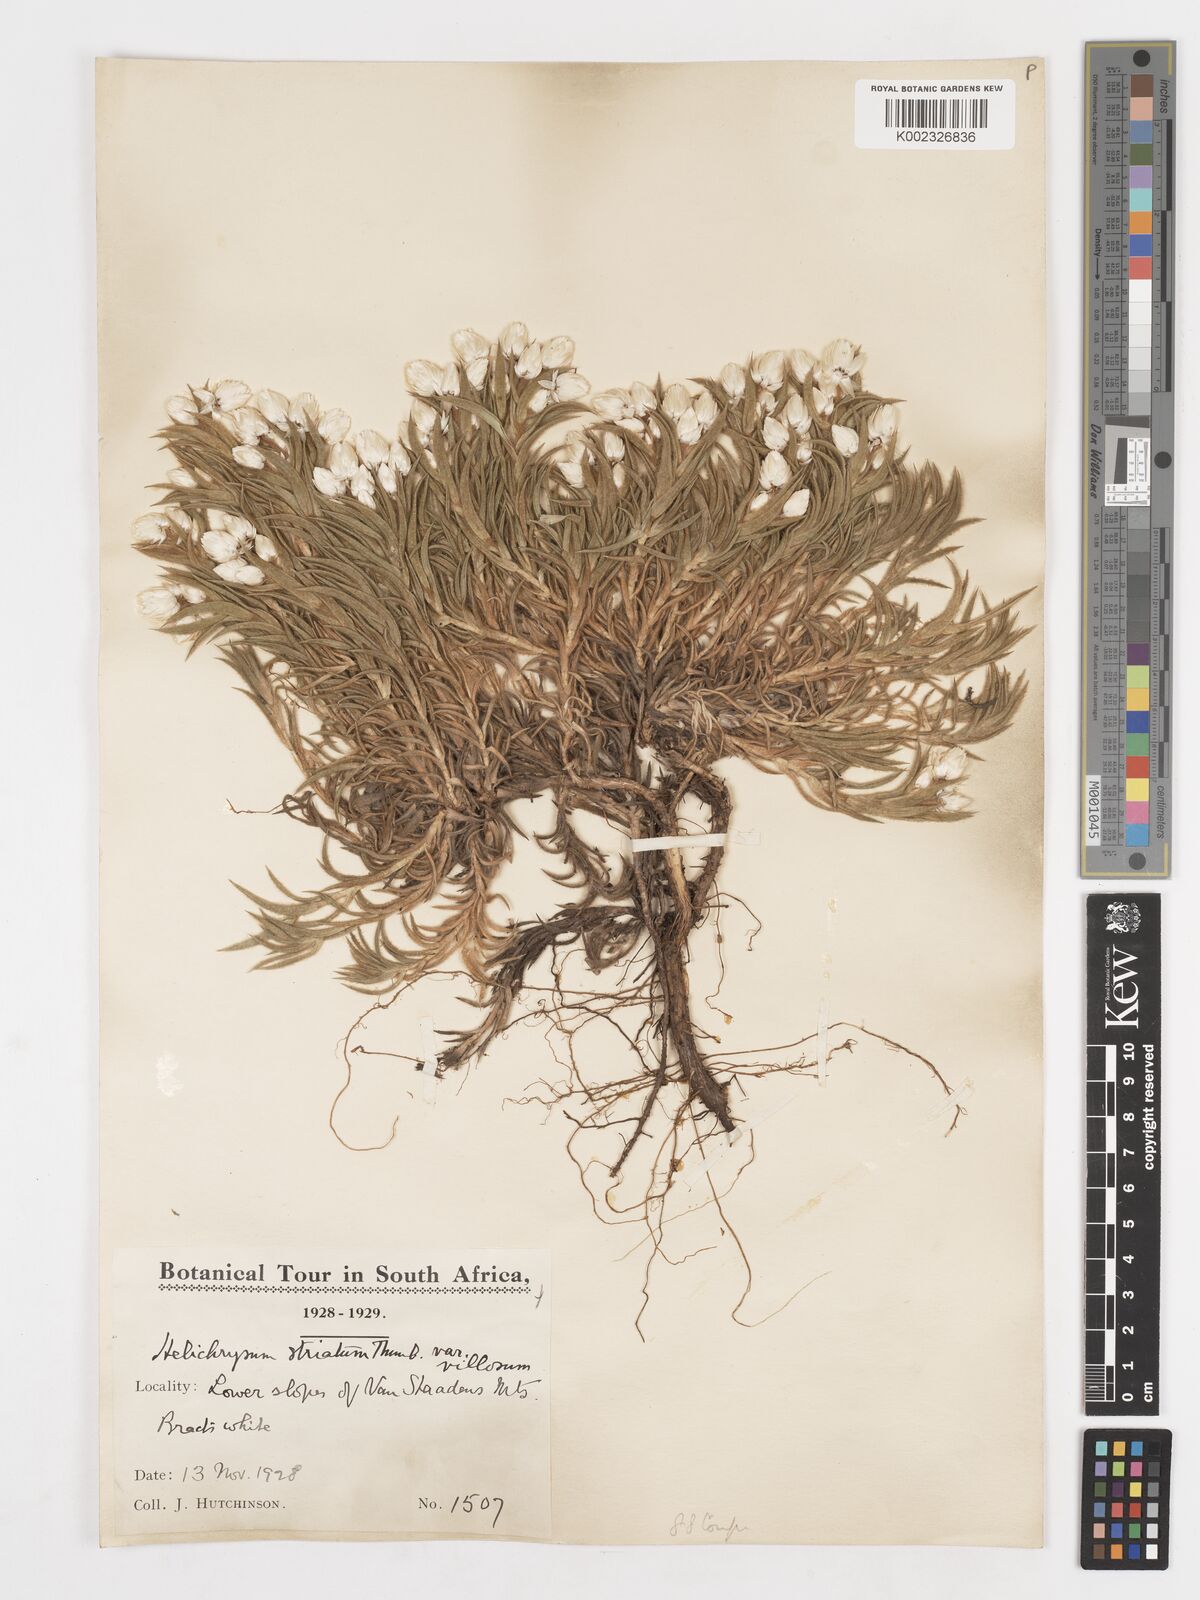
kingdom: Plantae
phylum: Tracheophyta
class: Magnoliopsida
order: Asterales
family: Asteraceae
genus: Achyranthemum
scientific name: Achyranthemum striatum
